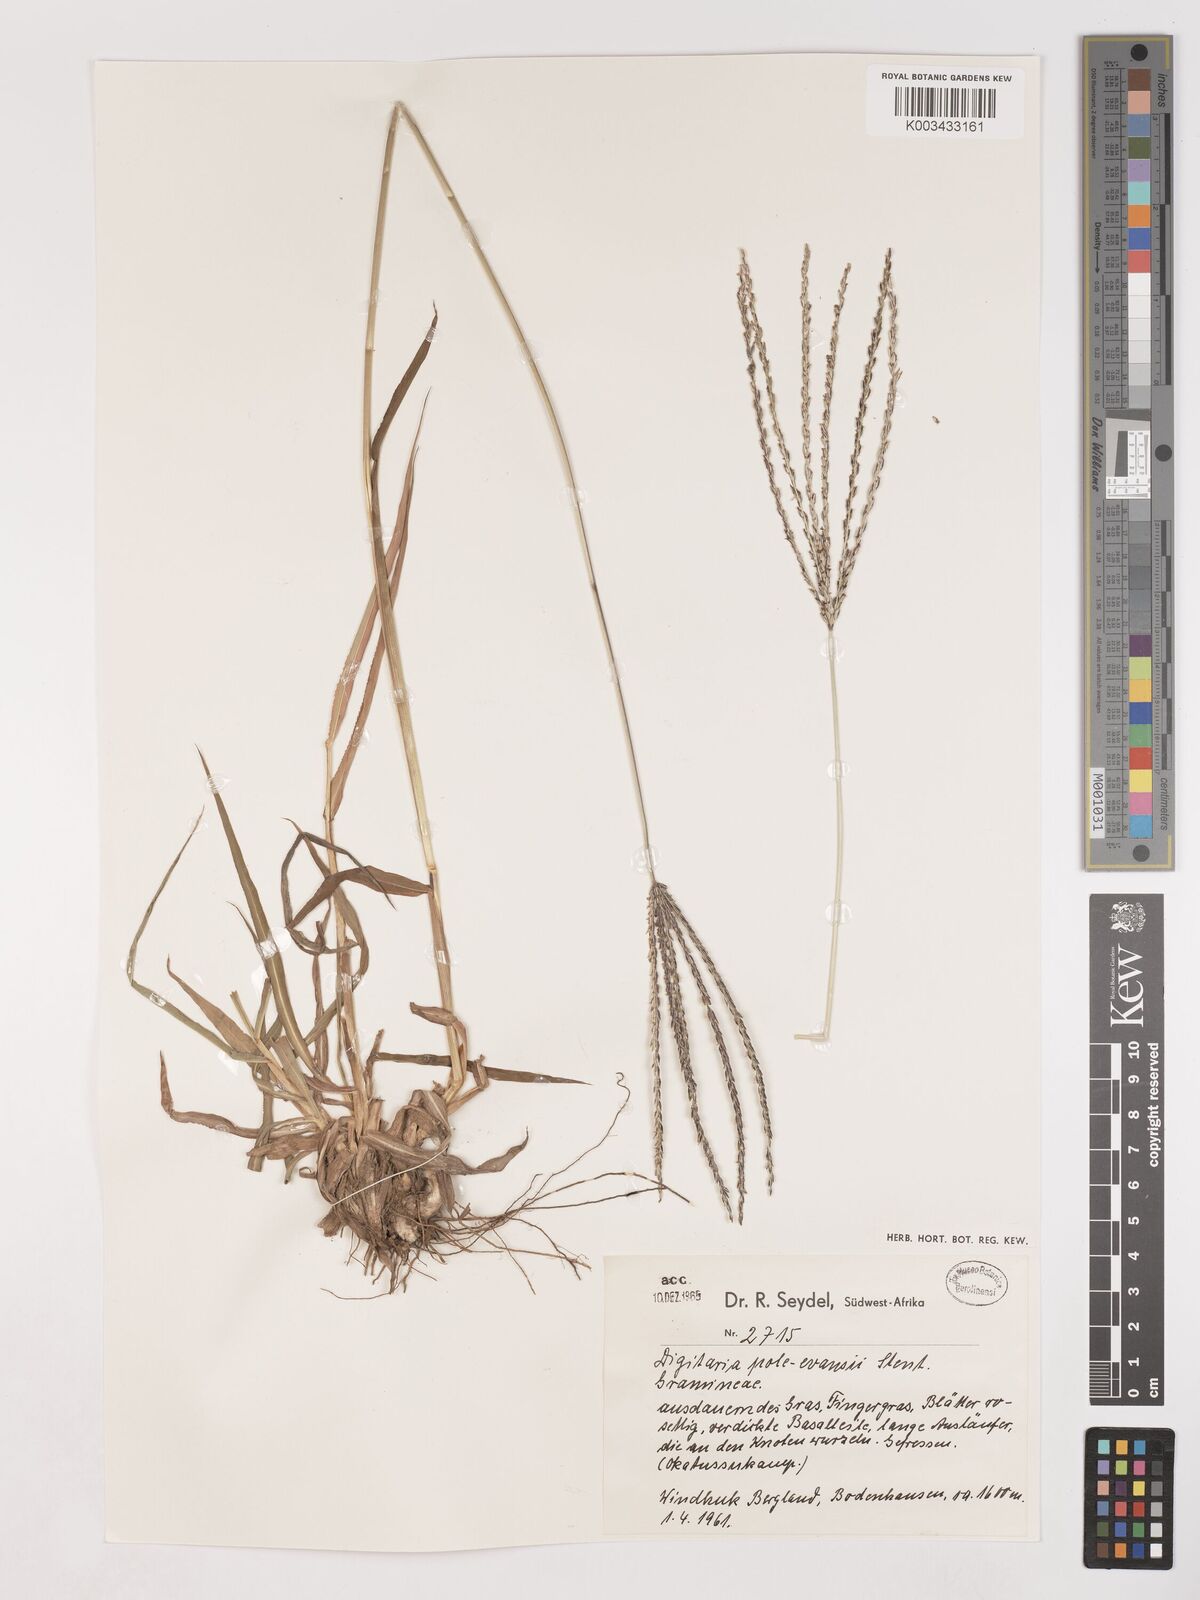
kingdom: Plantae
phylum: Tracheophyta
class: Liliopsida
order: Poales
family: Poaceae
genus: Digitaria
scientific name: Digitaria milanjiana
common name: Madagascar crabgrass
